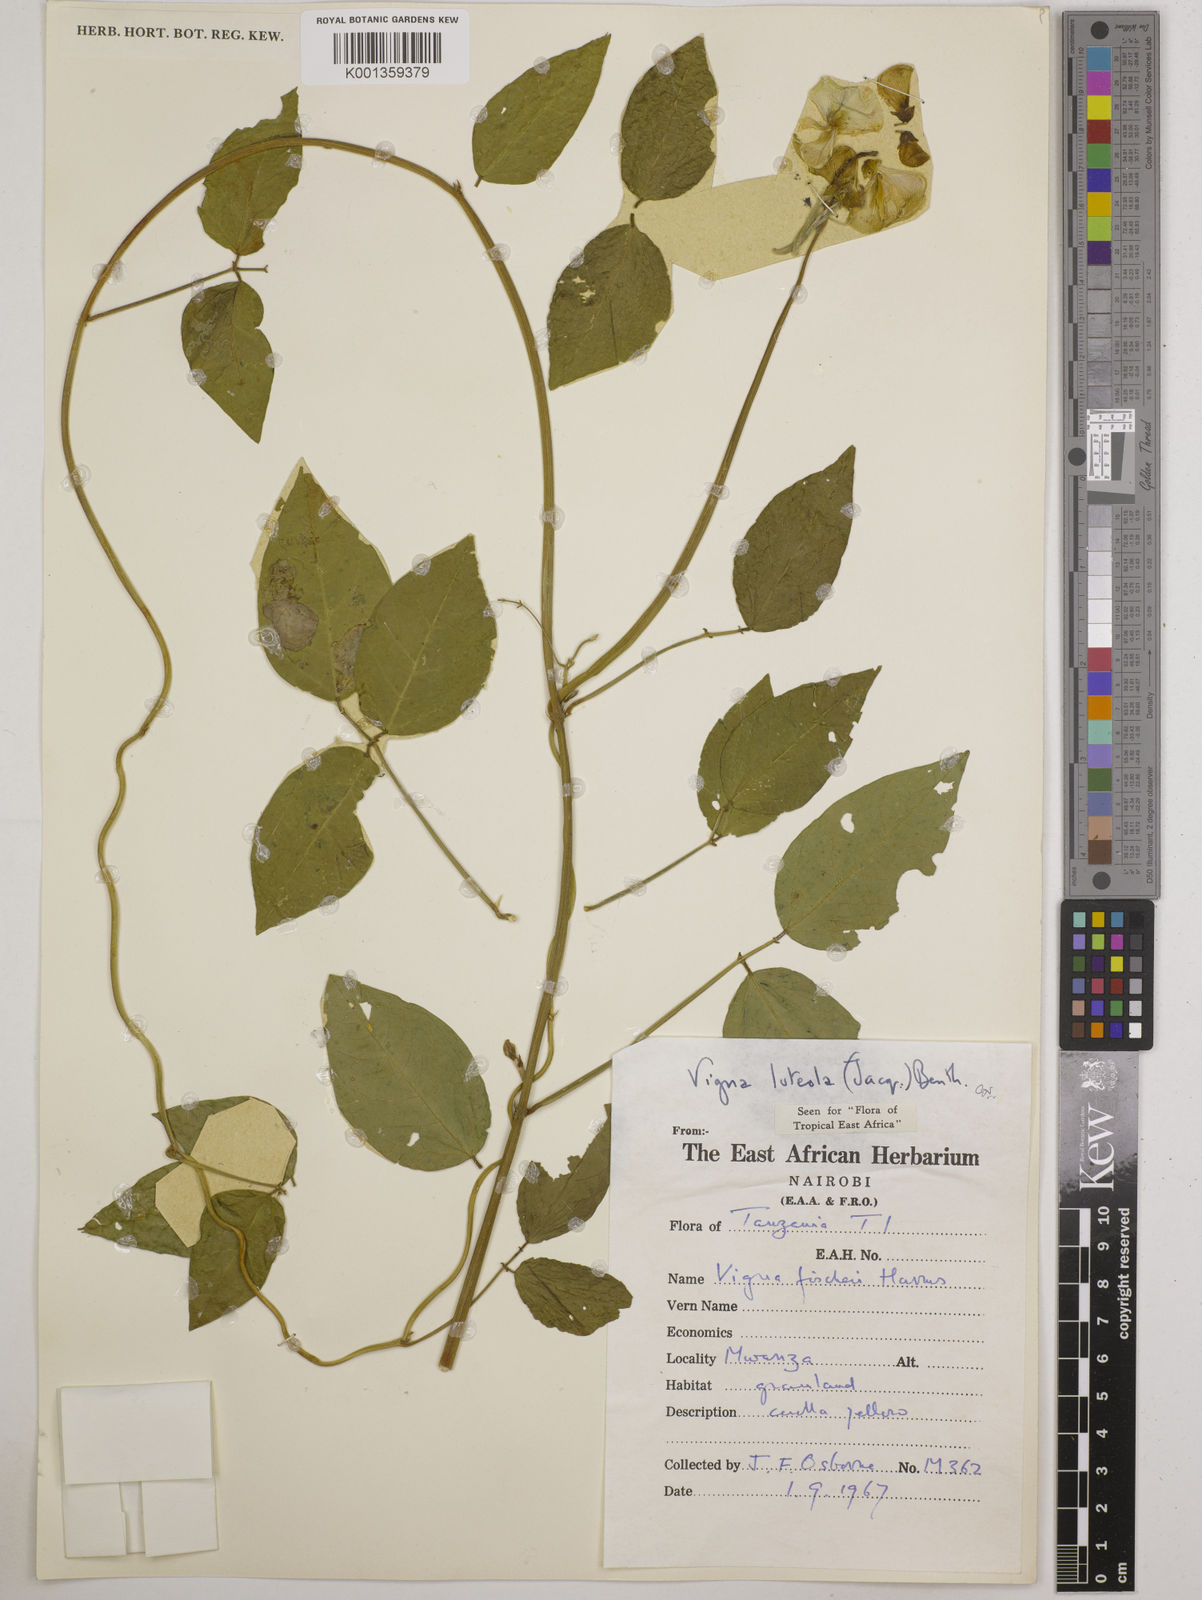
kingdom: Plantae
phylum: Tracheophyta
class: Magnoliopsida
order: Fabales
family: Fabaceae
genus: Vigna
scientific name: Vigna luteola
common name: Hairypod cowpea
